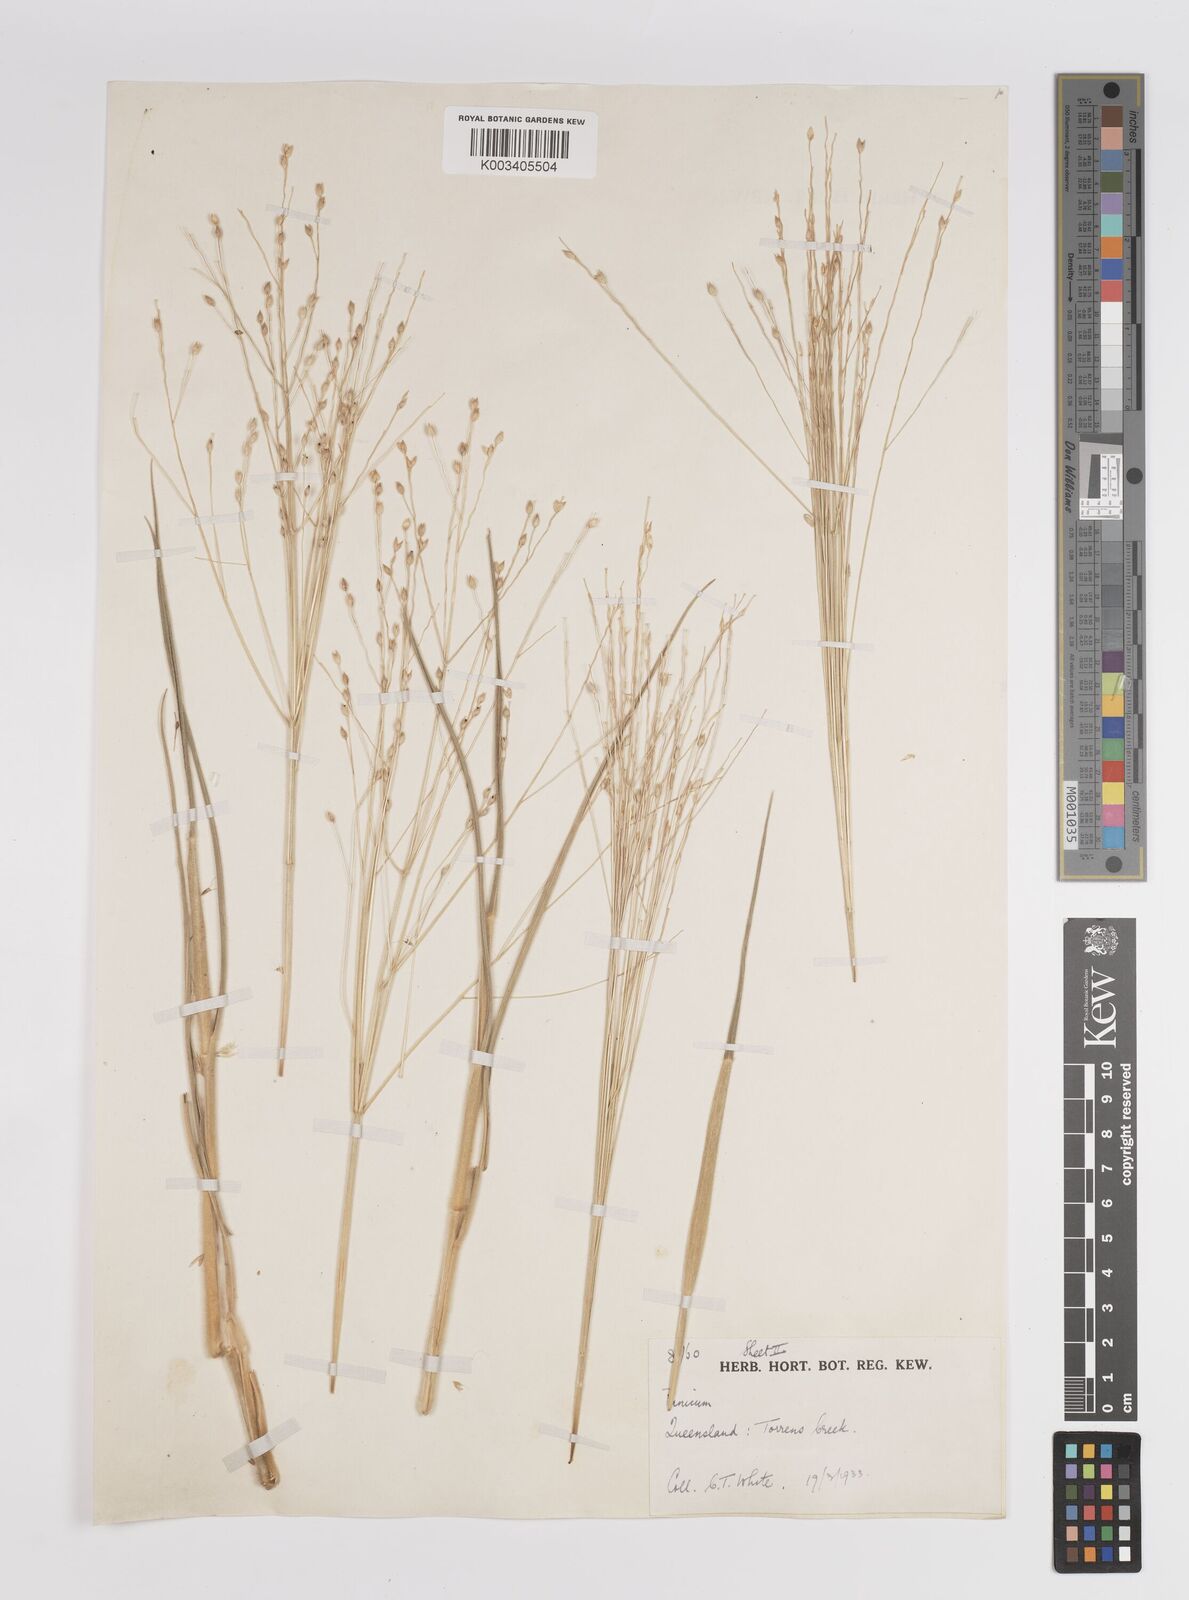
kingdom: Plantae
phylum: Tracheophyta
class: Liliopsida
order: Poales
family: Poaceae
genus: Panicum
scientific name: Panicum
